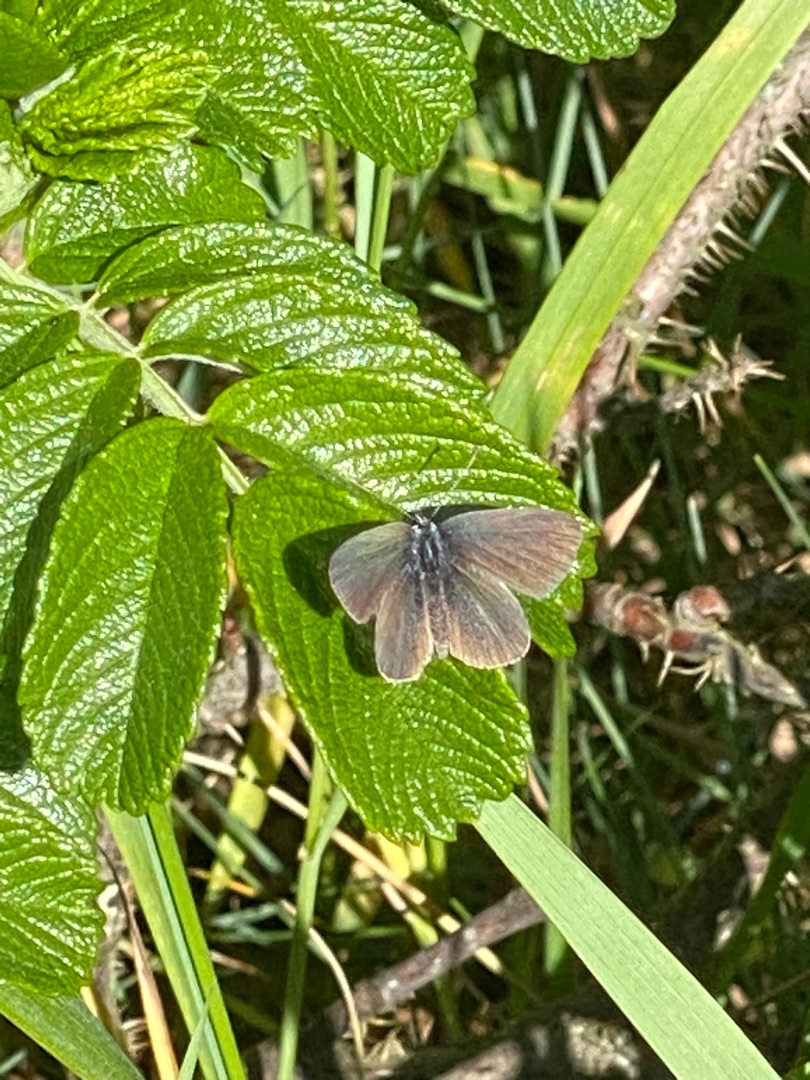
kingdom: Animalia
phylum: Arthropoda
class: Insecta
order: Lepidoptera
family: Lycaenidae
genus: Cupido
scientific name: Cupido minimus
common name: Dværgblåfugl
